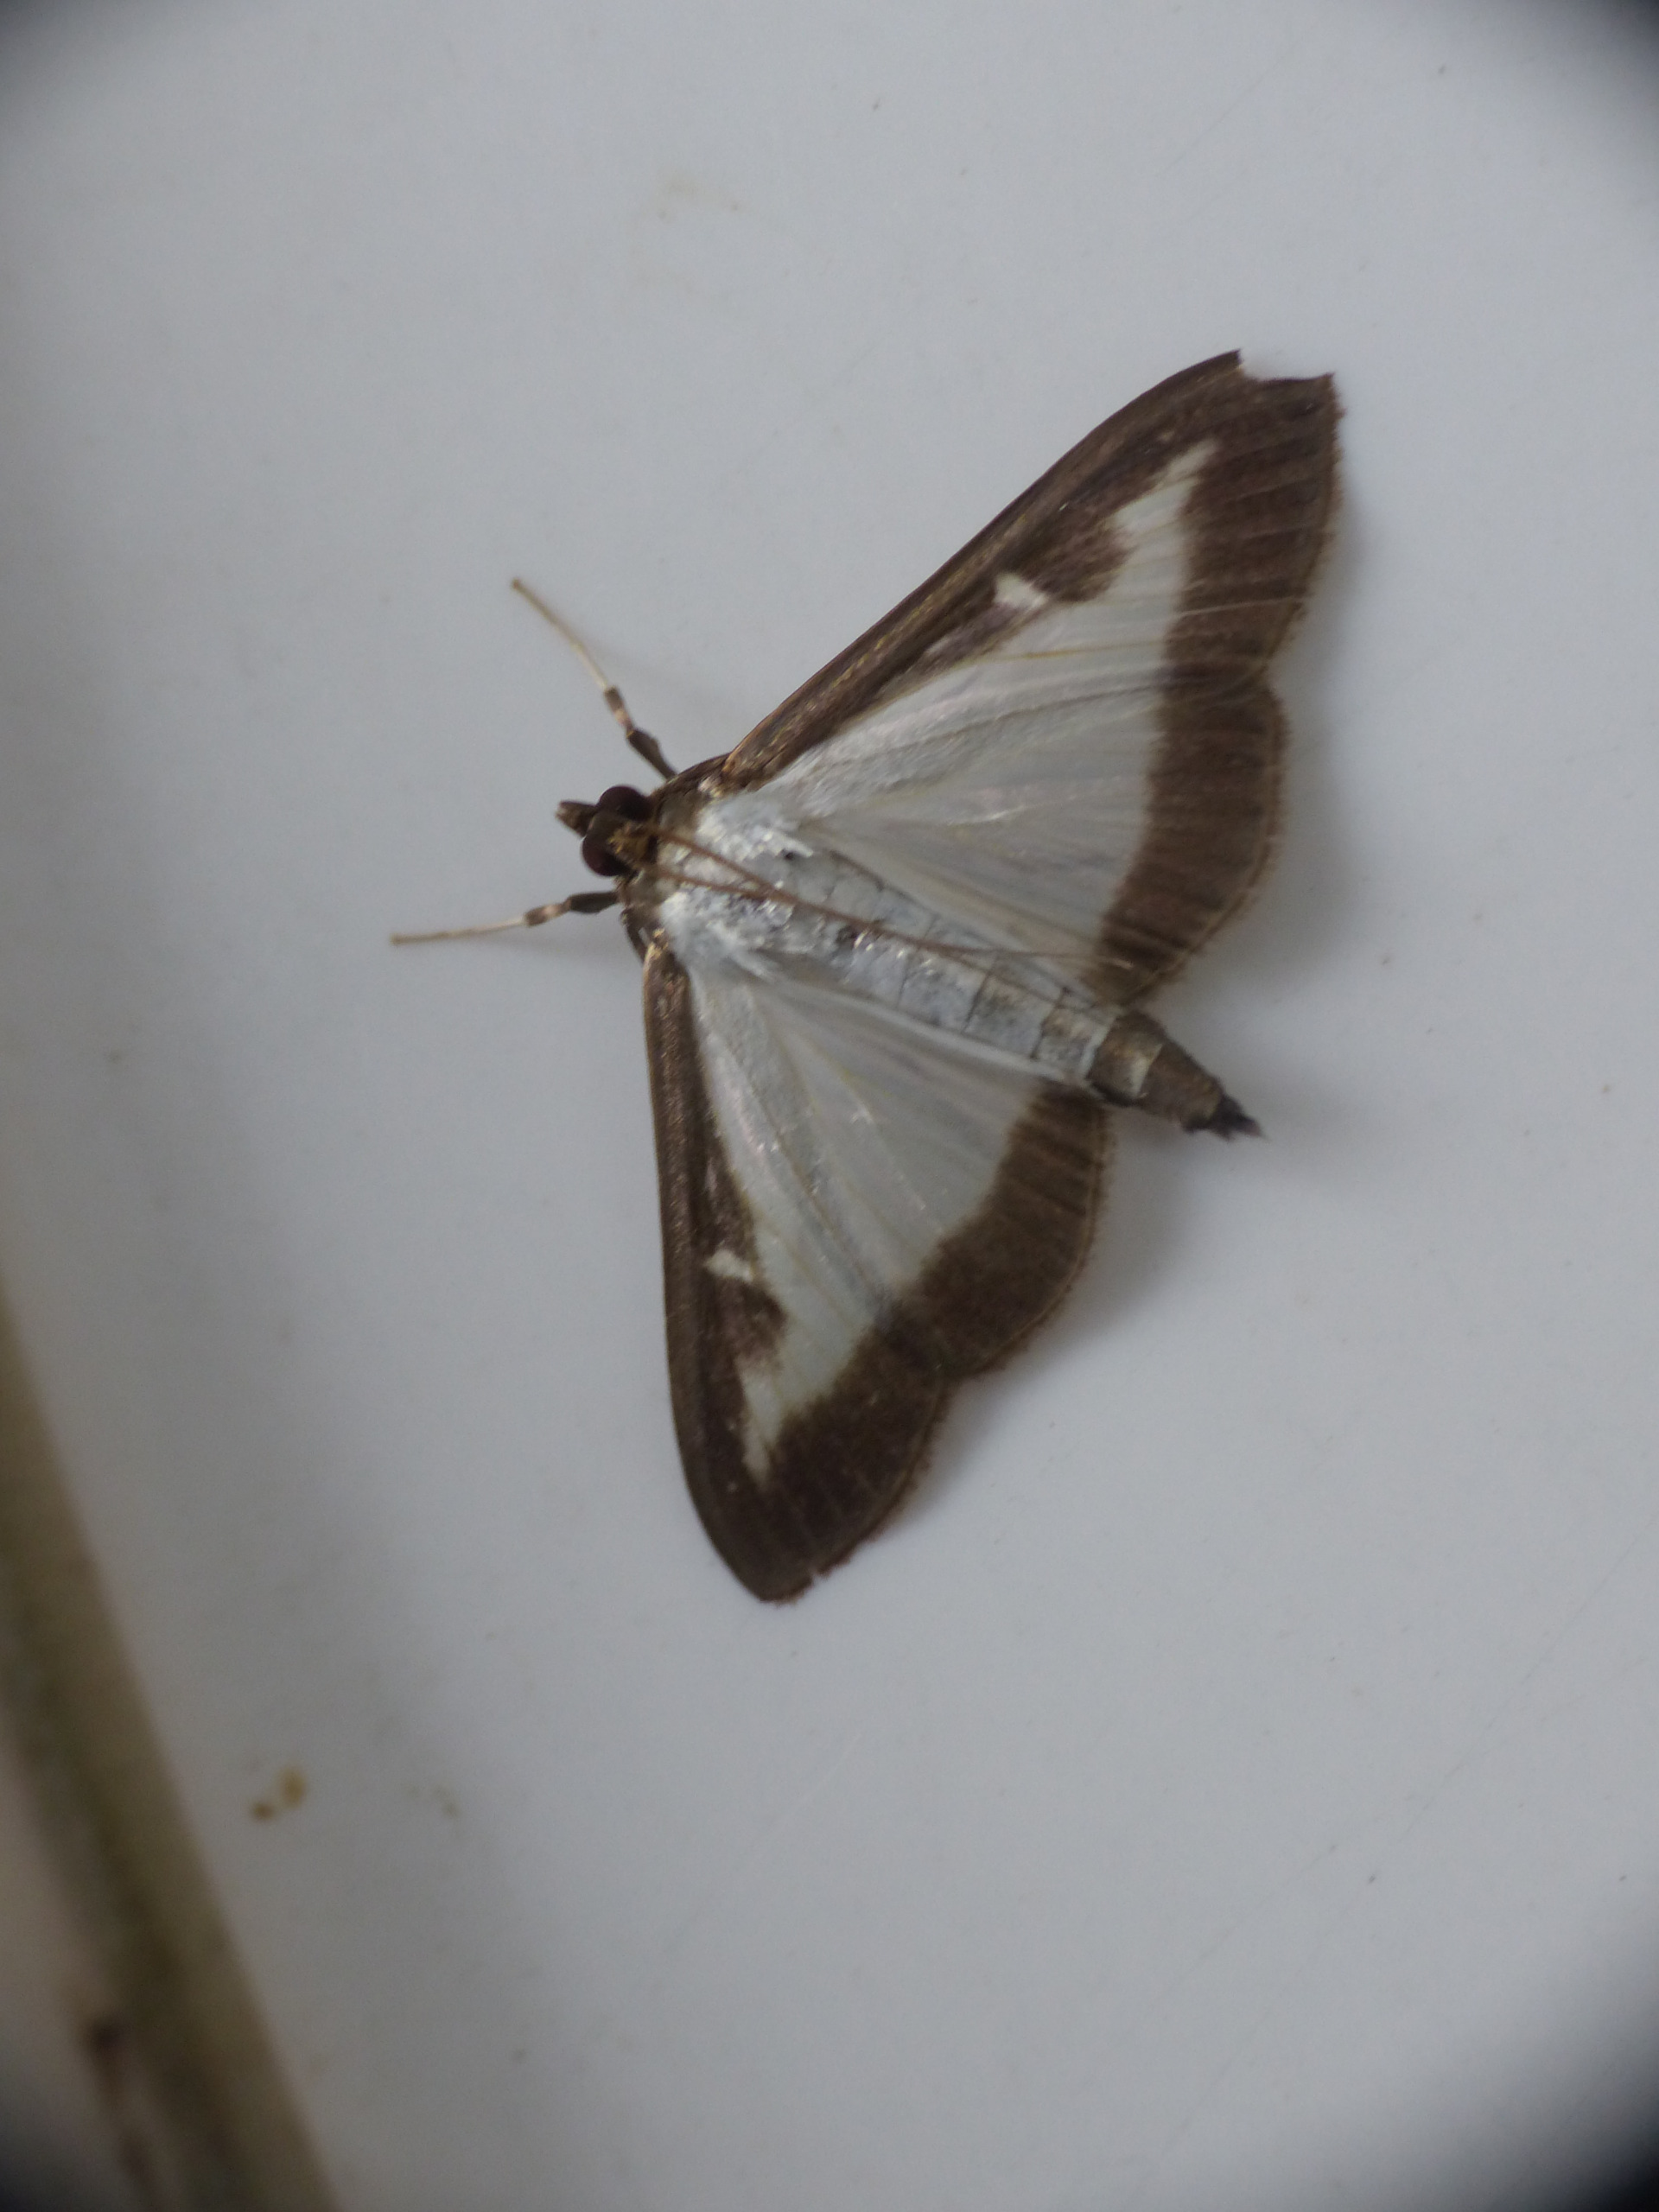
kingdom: Animalia
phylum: Arthropoda
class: Insecta
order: Lepidoptera
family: Crambidae
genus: Cydalima
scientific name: Cydalima perspectalis
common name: Buksbomhalvmøl
